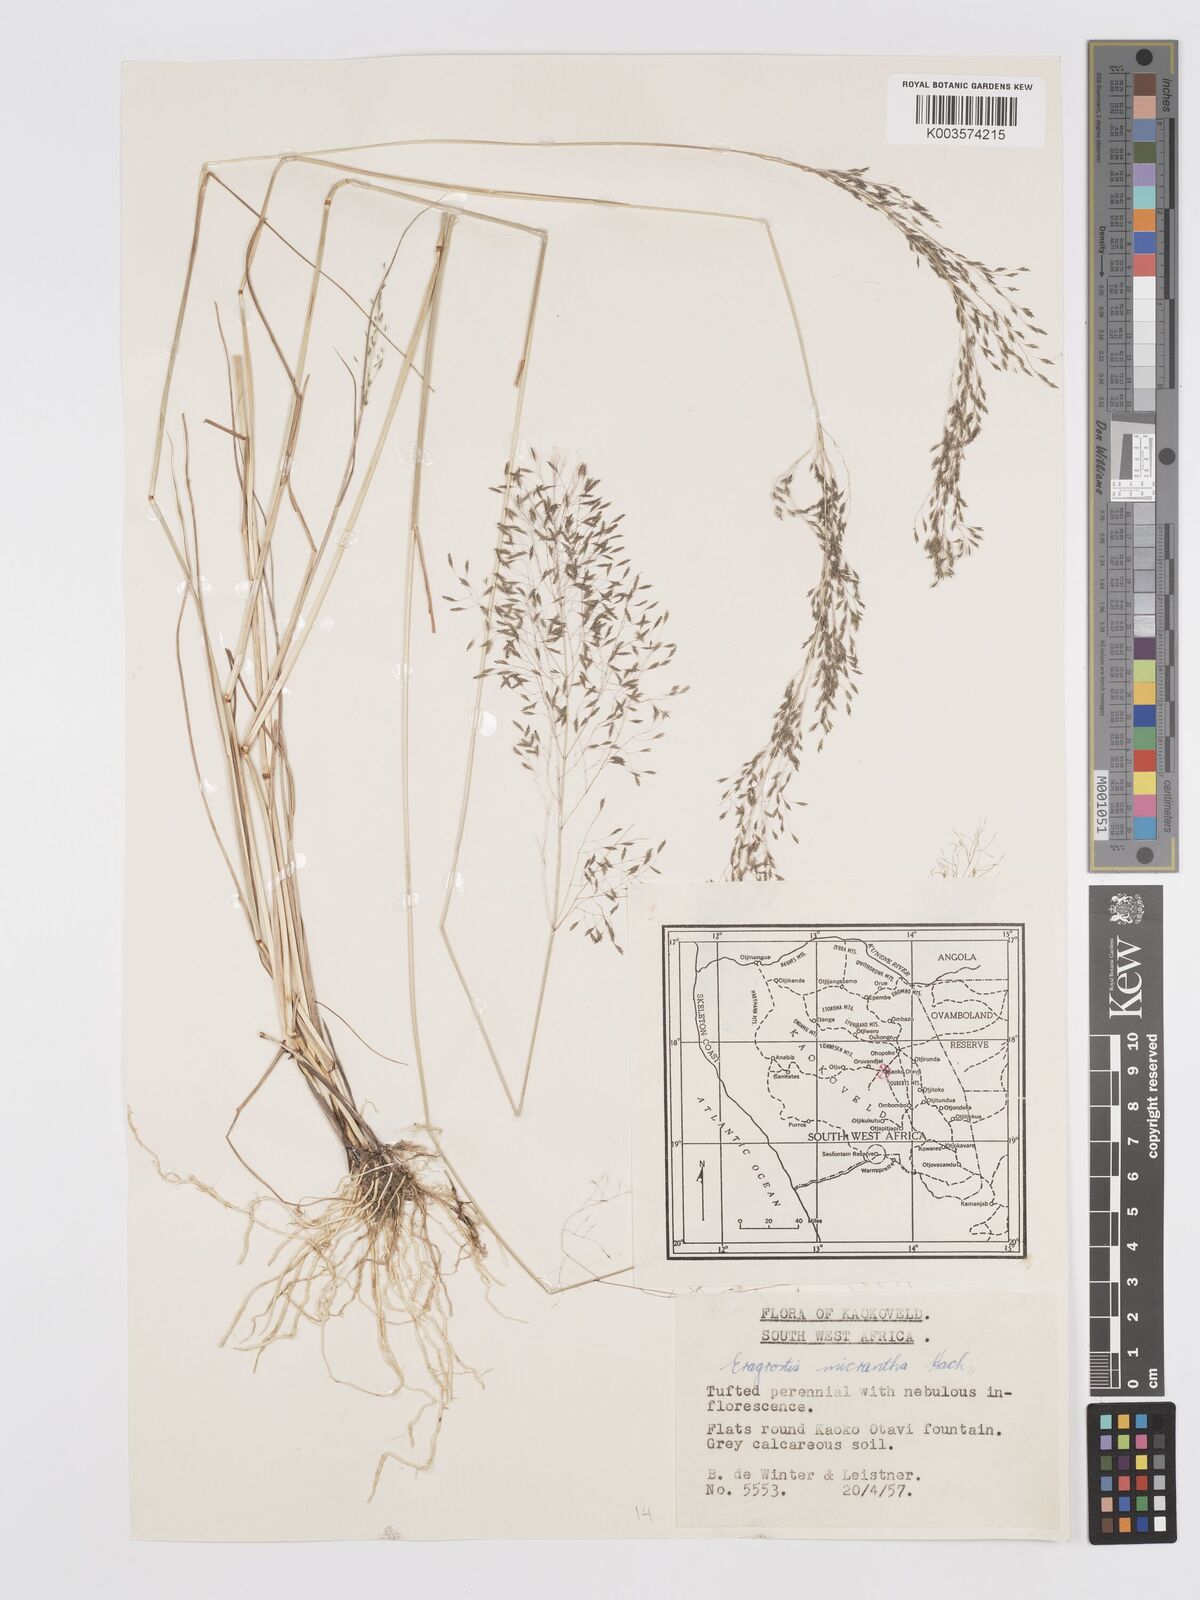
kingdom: Plantae
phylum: Tracheophyta
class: Liliopsida
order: Poales
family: Poaceae
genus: Eragrostis
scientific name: Eragrostis micrantha
